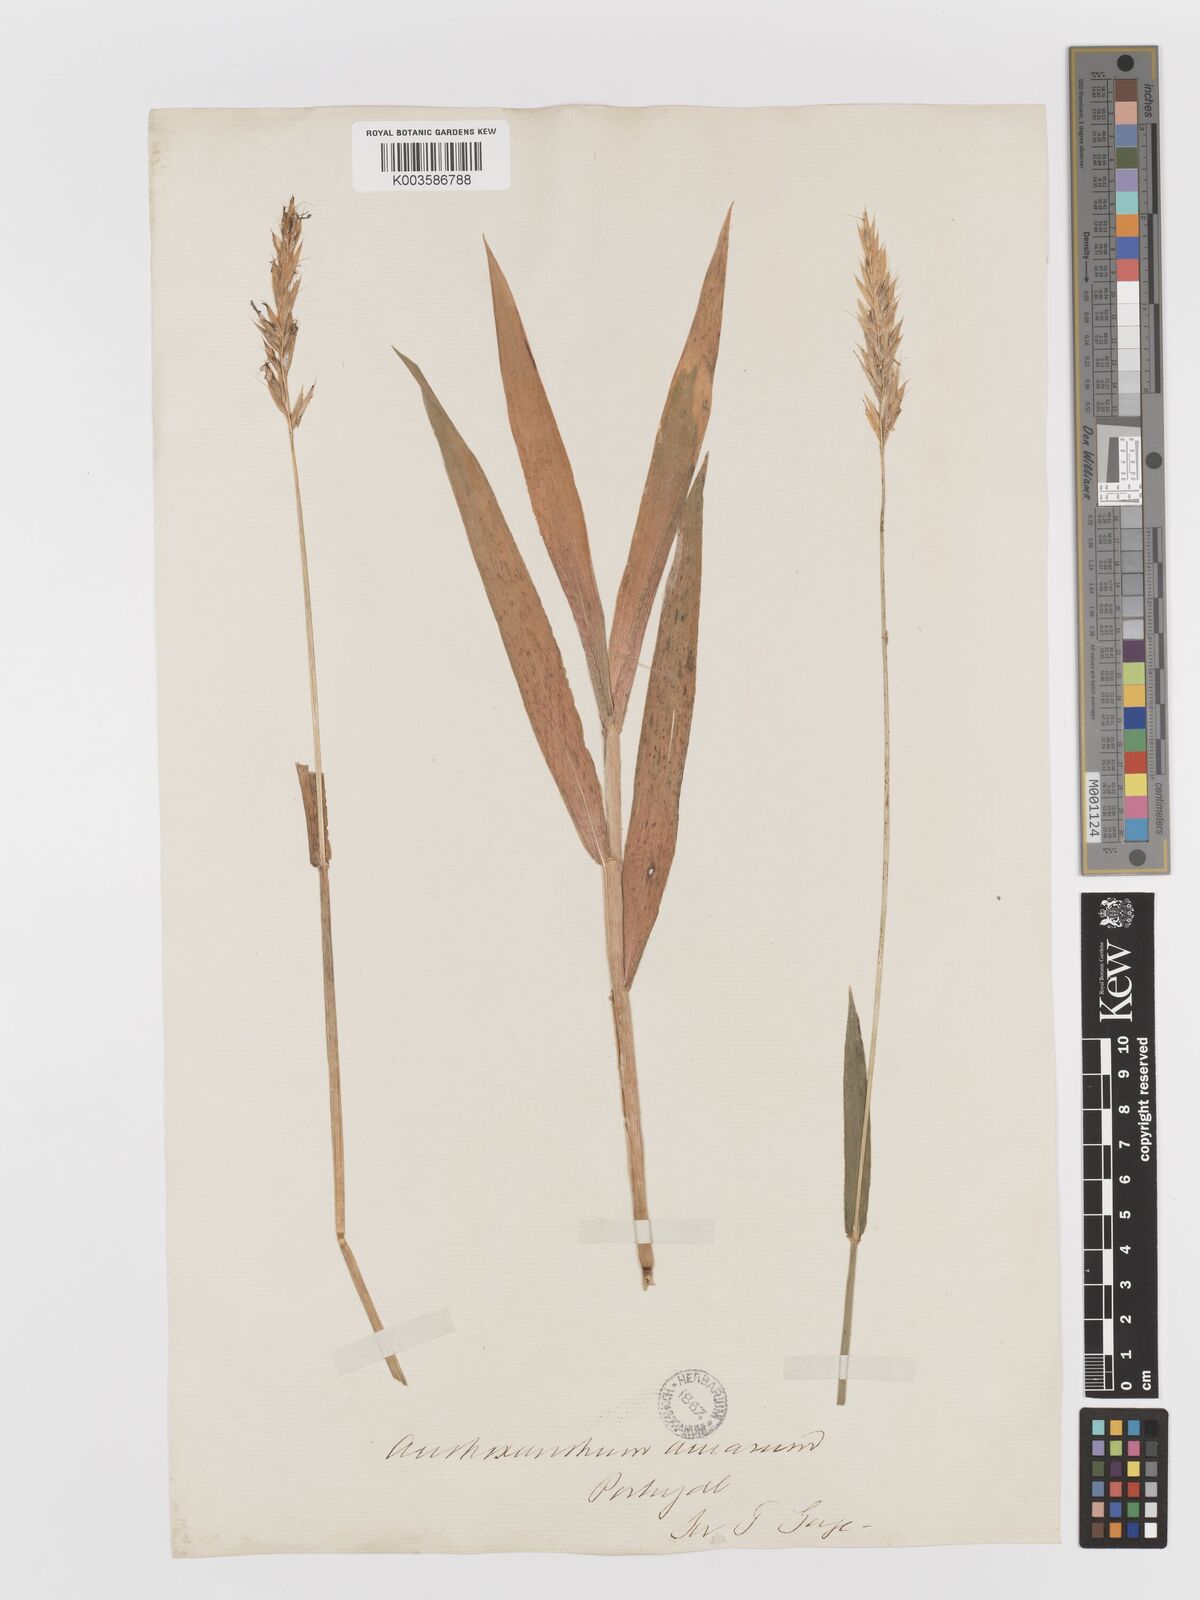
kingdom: Plantae
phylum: Tracheophyta
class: Liliopsida
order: Poales
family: Poaceae
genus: Anthoxanthum
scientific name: Anthoxanthum amarum
